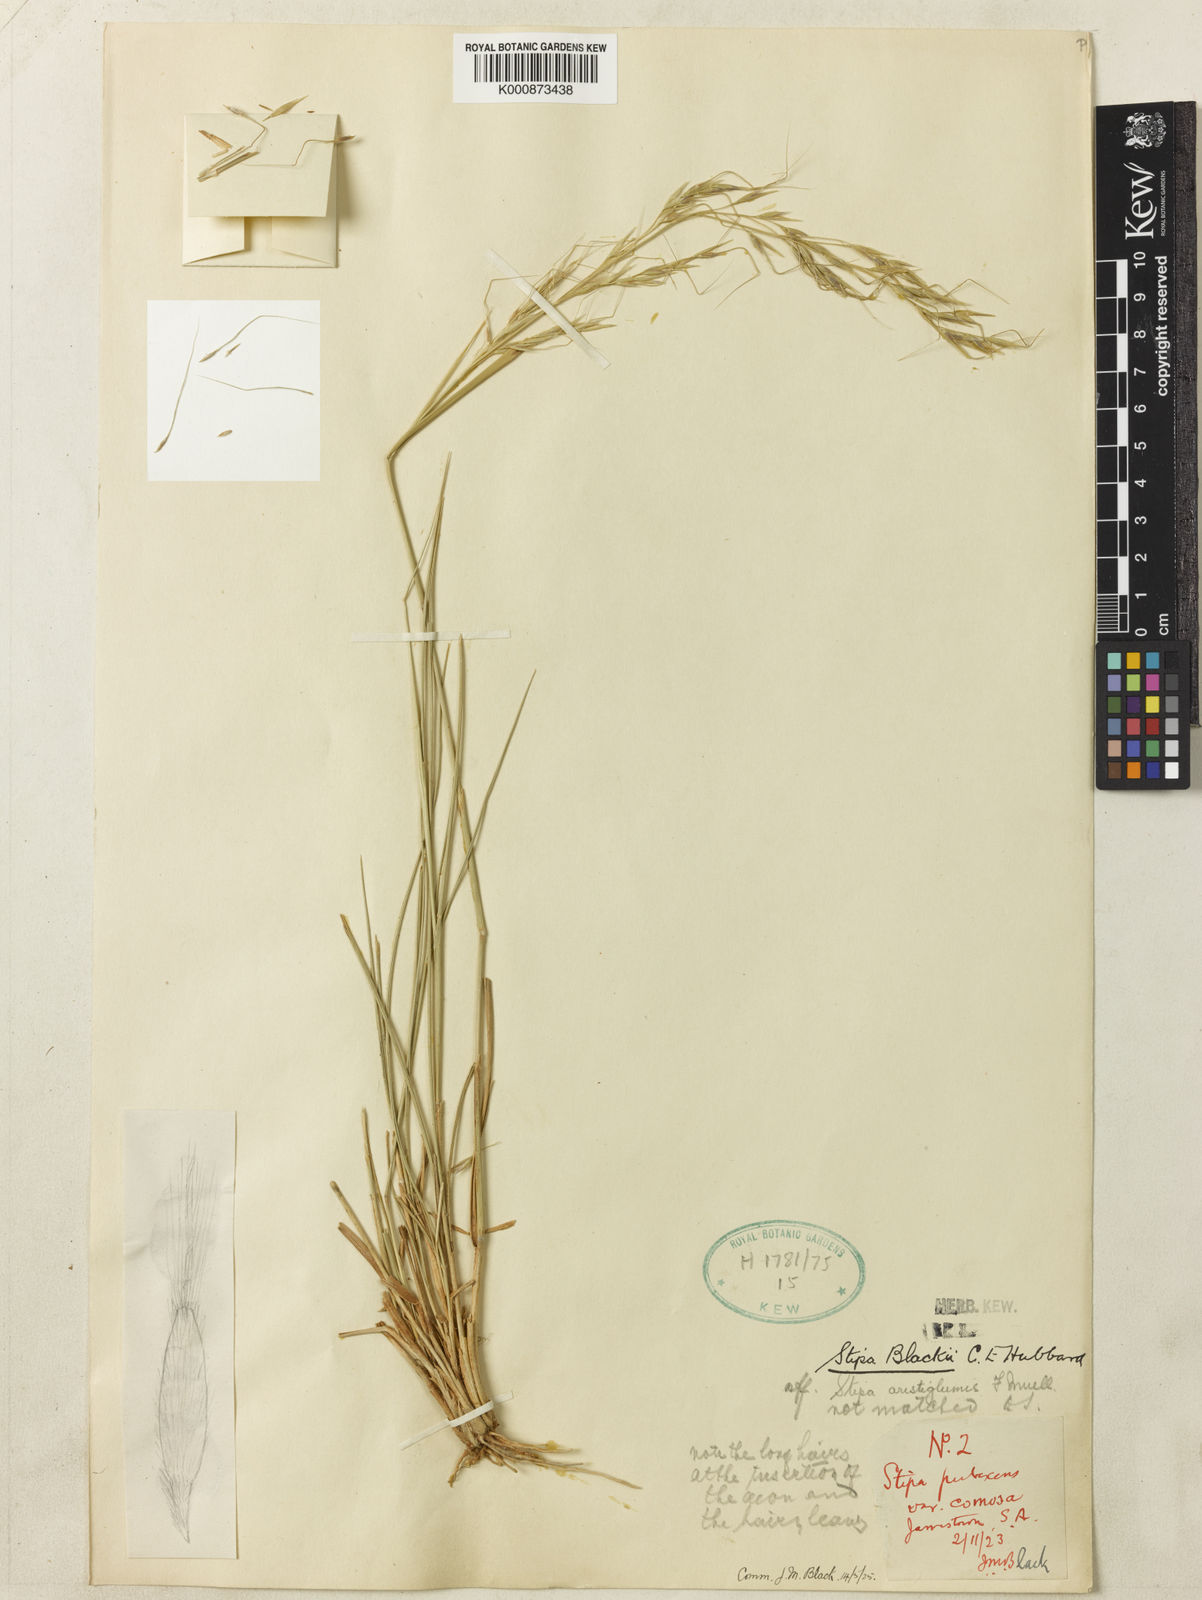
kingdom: Plantae
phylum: Tracheophyta
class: Liliopsida
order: Poales
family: Poaceae
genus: Austrostipa
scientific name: Austrostipa blackii
